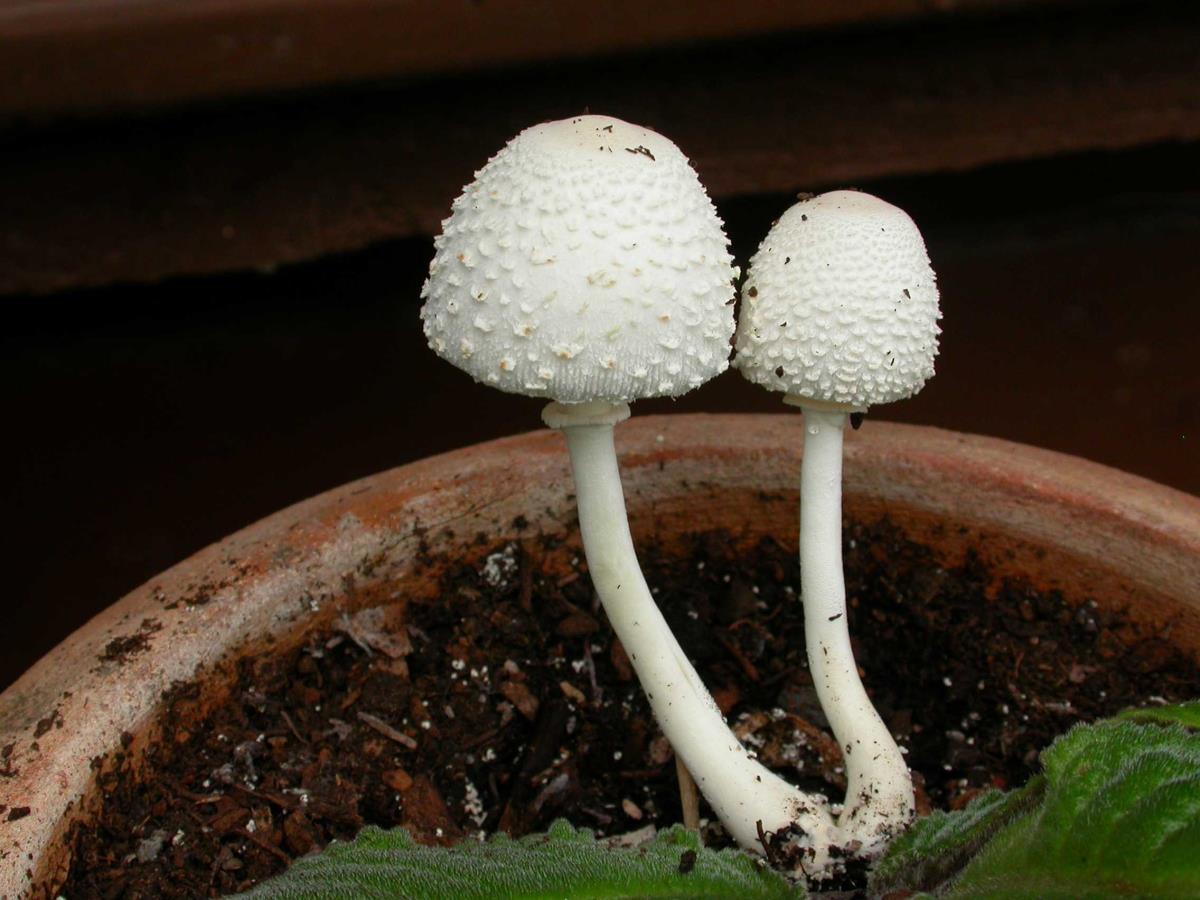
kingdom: Fungi
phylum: Basidiomycota
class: Agaricomycetes
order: Agaricales
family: Agaricaceae
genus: Leucocoprinus
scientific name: Leucocoprinus cepistipes
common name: Onion-stalk parasol
